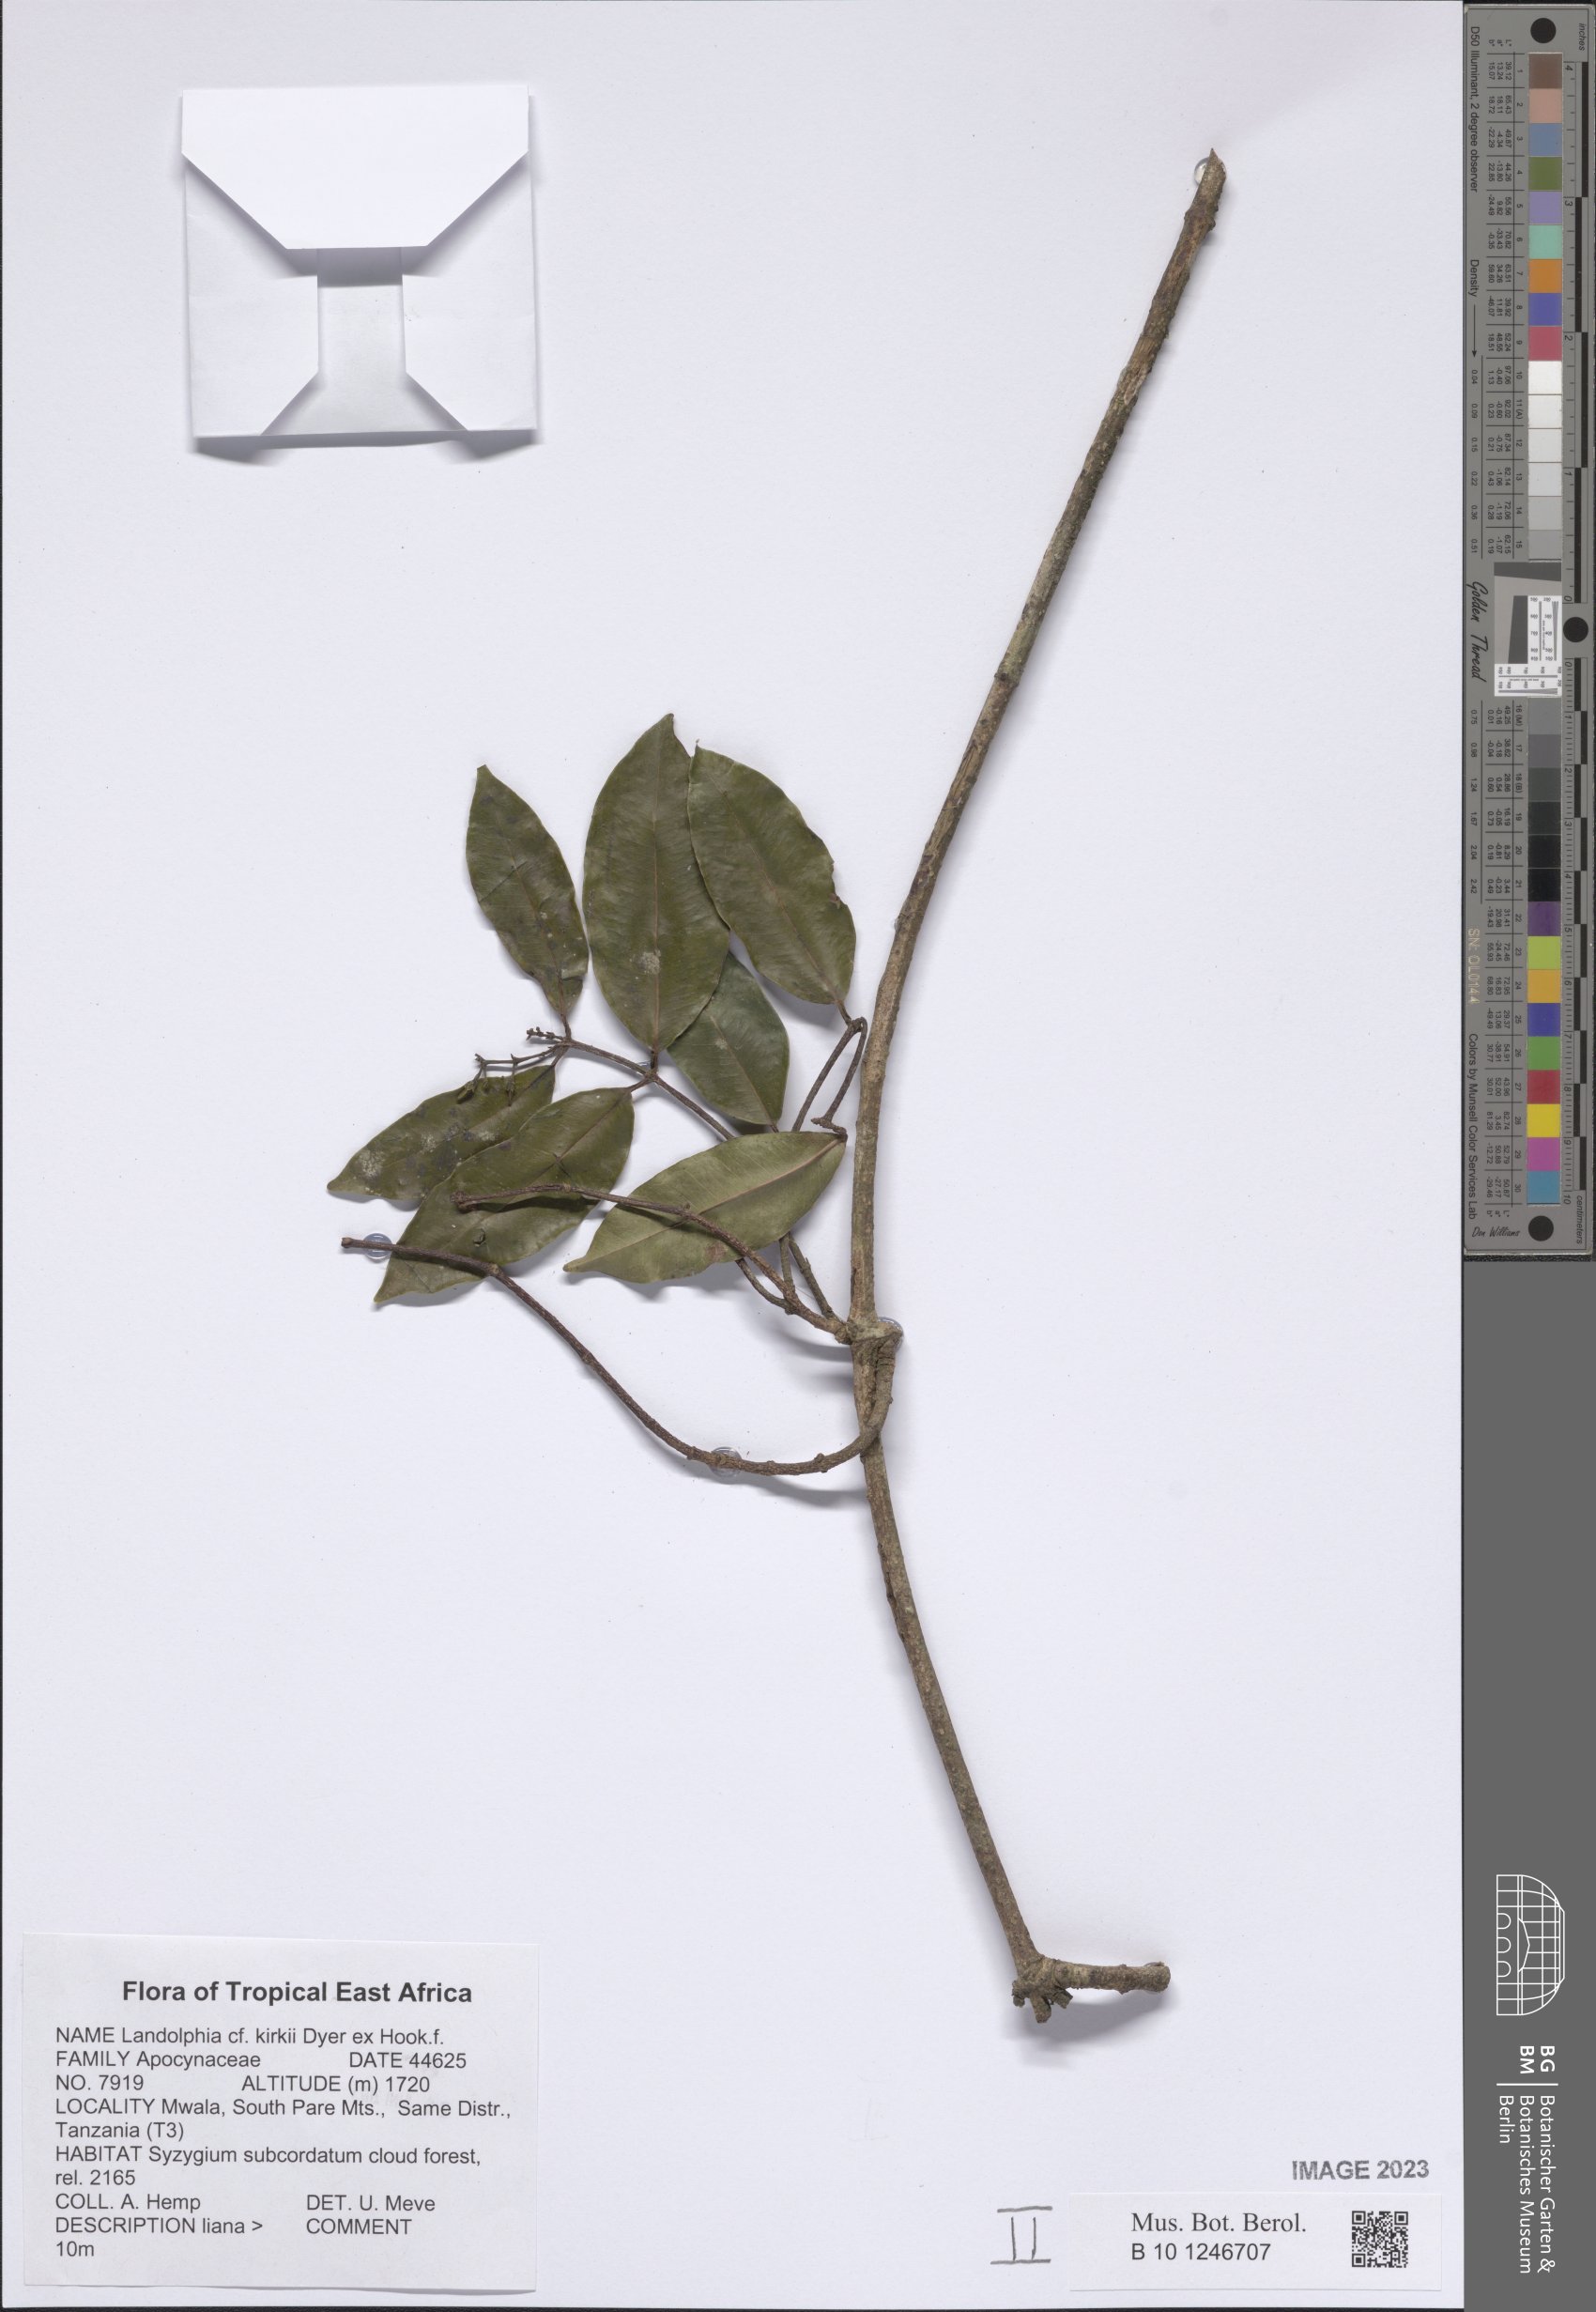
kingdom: Plantae
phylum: Tracheophyta
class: Magnoliopsida
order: Gentianales
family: Apocynaceae
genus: Landolphia
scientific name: Landolphia kirkii
